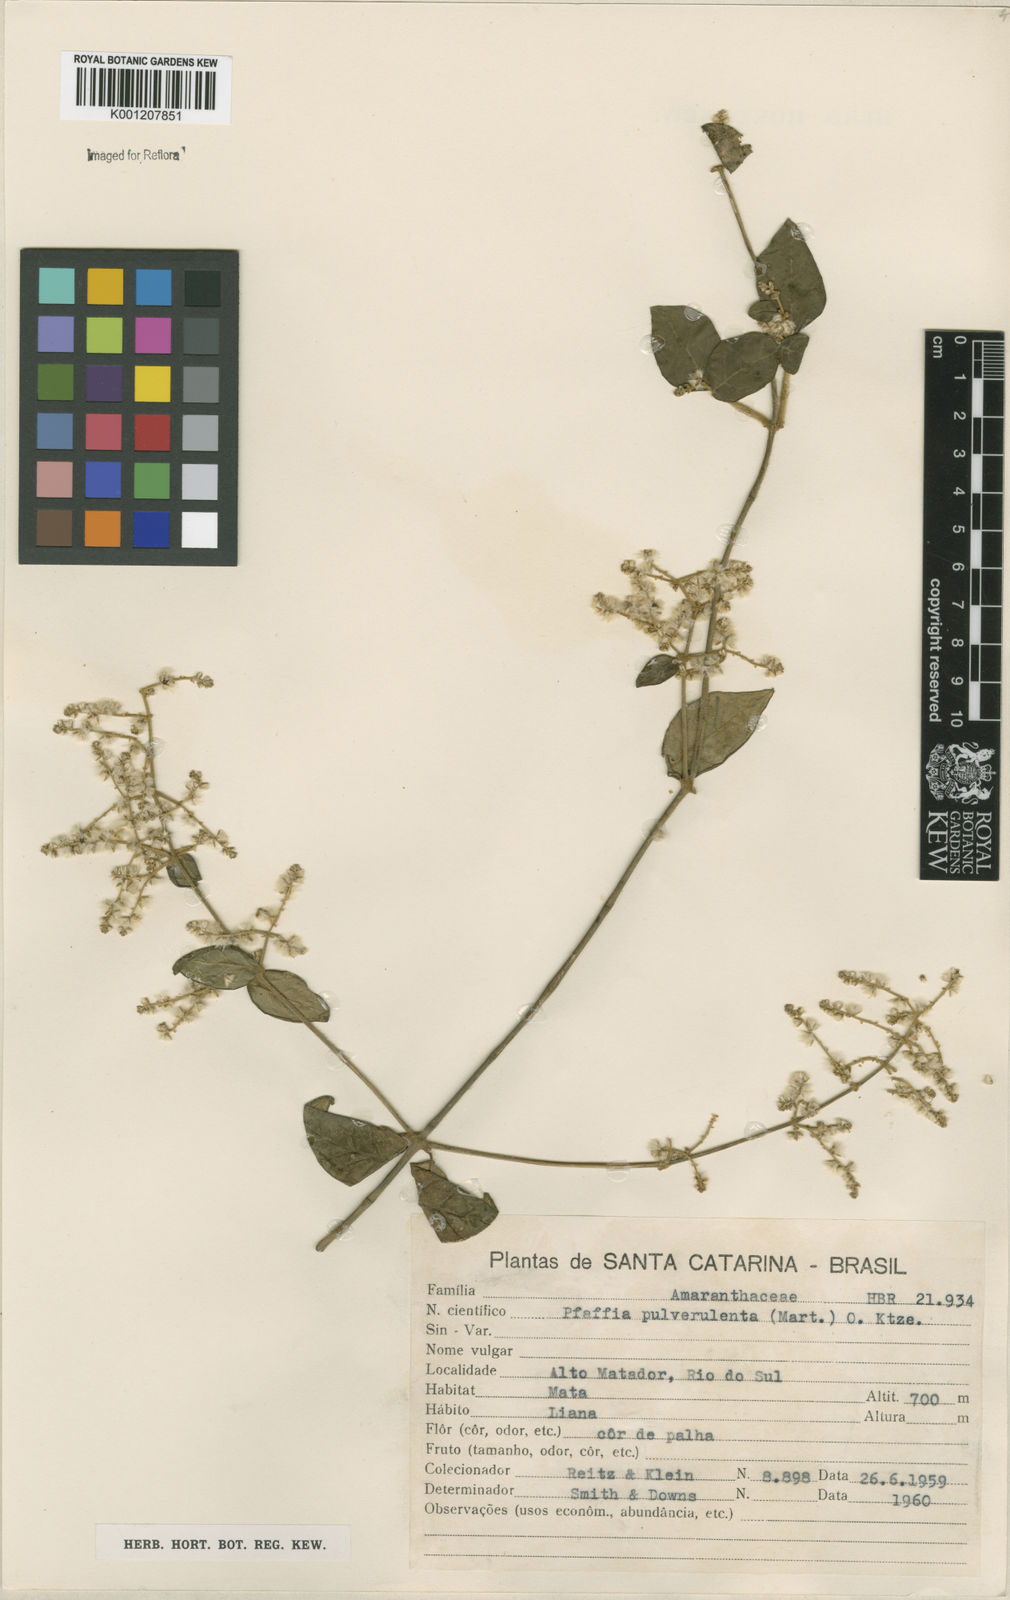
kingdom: Plantae
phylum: Tracheophyta
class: Magnoliopsida
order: Caryophyllales
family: Amaranthaceae
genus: Hebanthe
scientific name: Hebanthe pulverulenta
